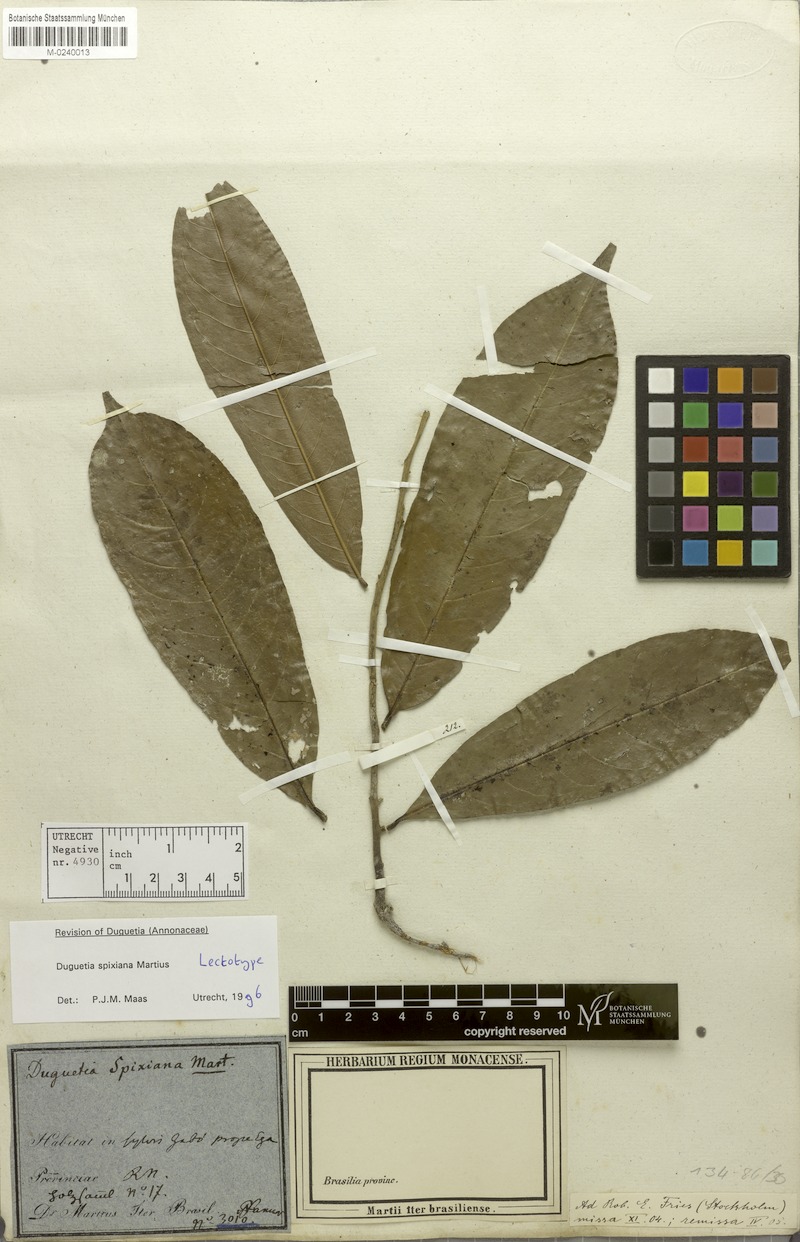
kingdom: Plantae
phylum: Tracheophyta
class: Magnoliopsida
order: Magnoliales
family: Annonaceae
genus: Duguetia
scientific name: Duguetia spixiana
